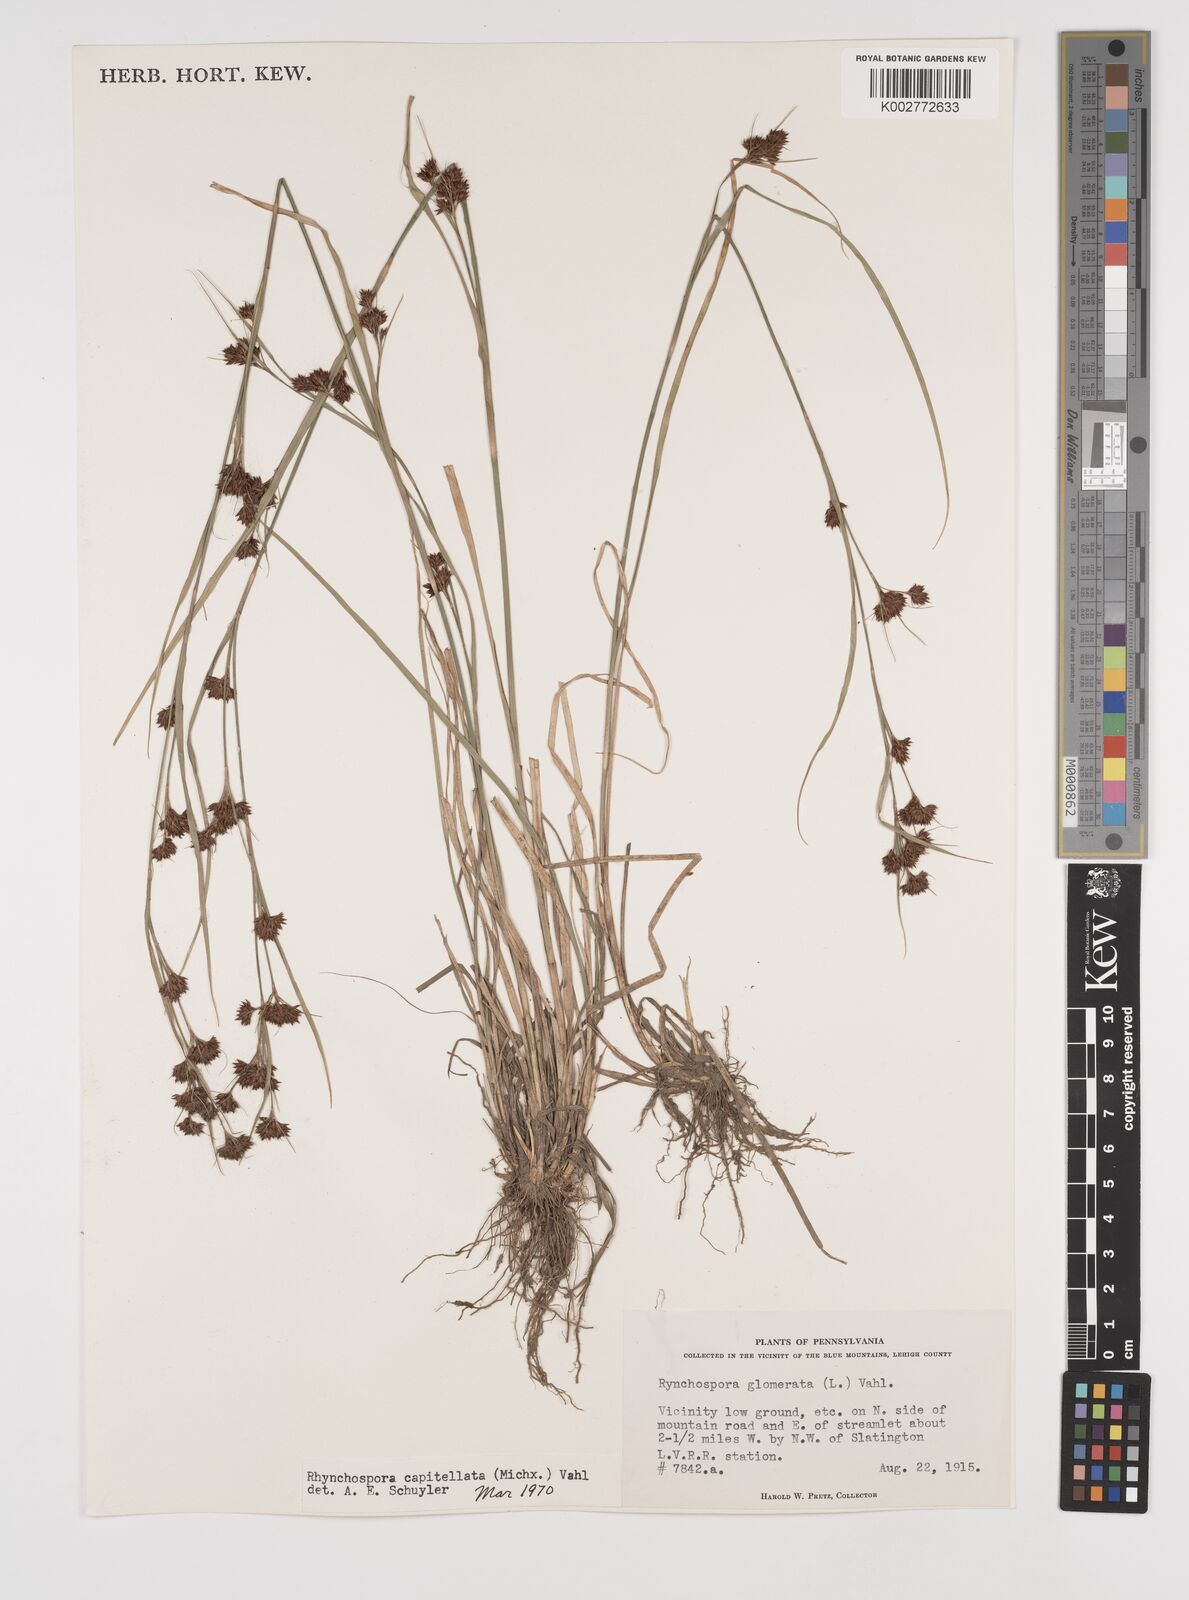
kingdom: Plantae
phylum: Tracheophyta
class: Liliopsida
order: Poales
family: Cyperaceae
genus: Rhynchospora
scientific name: Rhynchospora capitellata
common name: Brownish beaksedge
